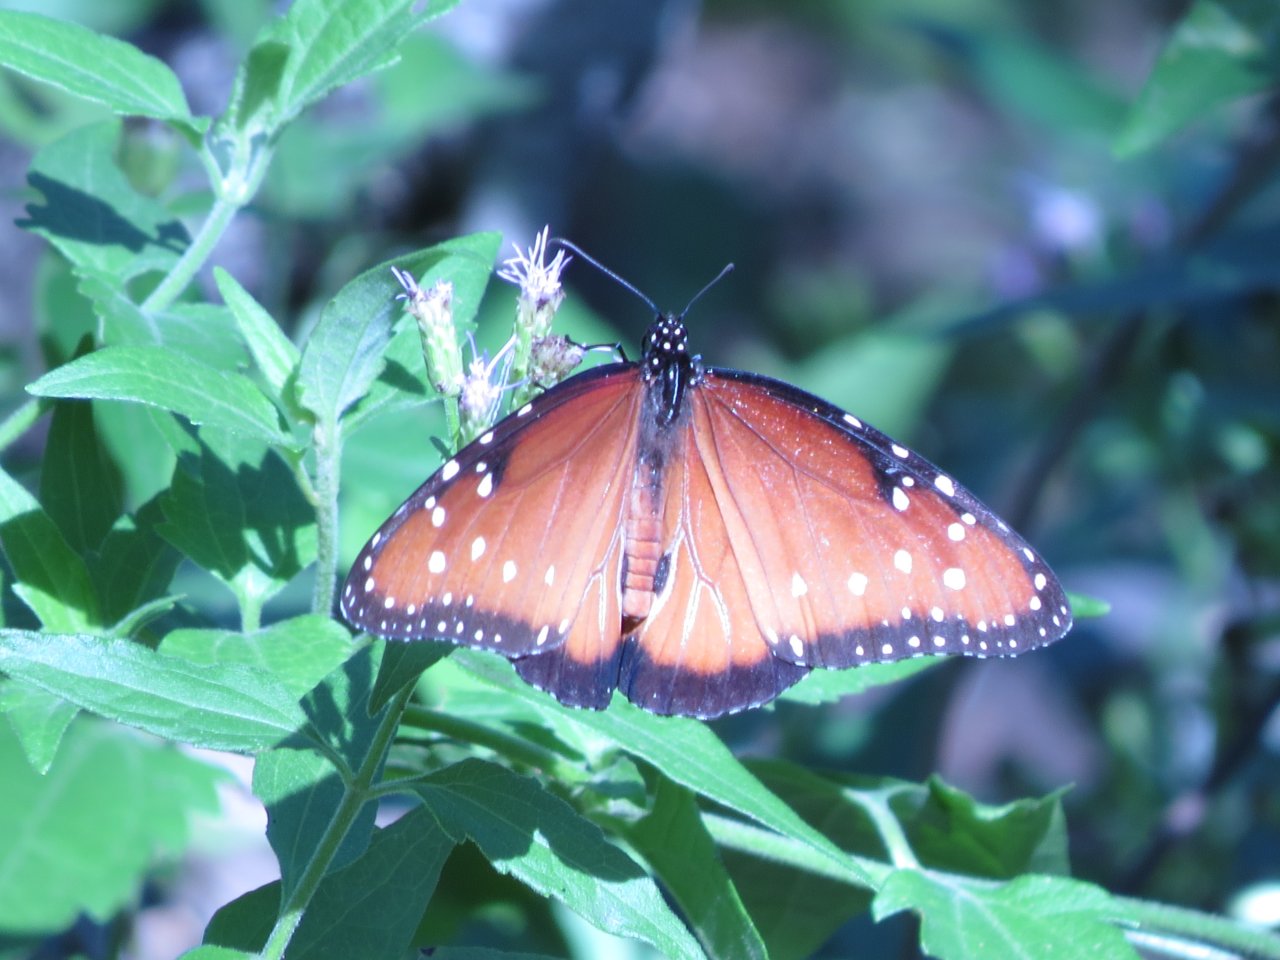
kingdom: Animalia
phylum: Arthropoda
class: Insecta
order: Lepidoptera
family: Nymphalidae
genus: Danaus
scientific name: Danaus gilippus
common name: Queen
